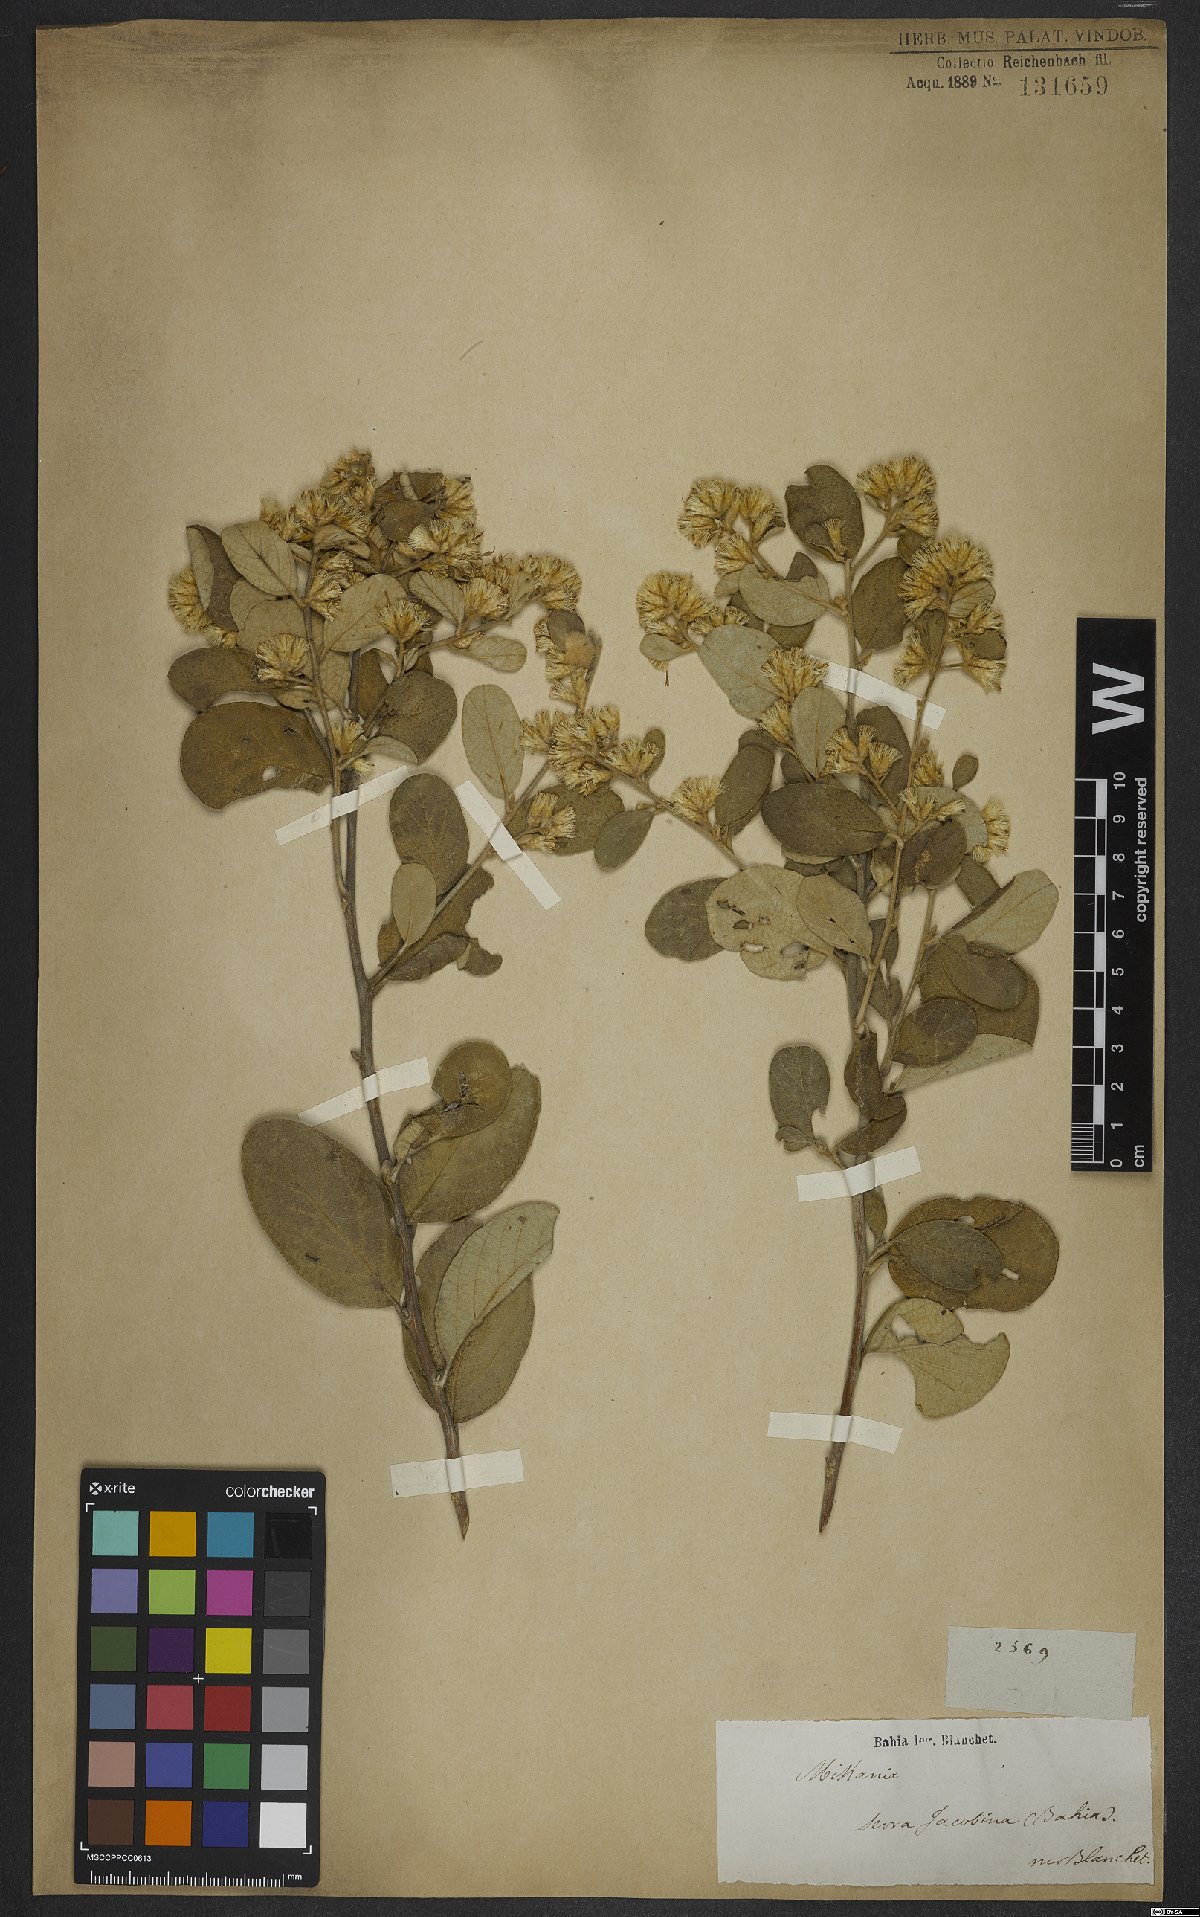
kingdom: Plantae
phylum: Tracheophyta
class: Magnoliopsida
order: Asterales
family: Asteraceae
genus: Mikania
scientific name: Mikania
